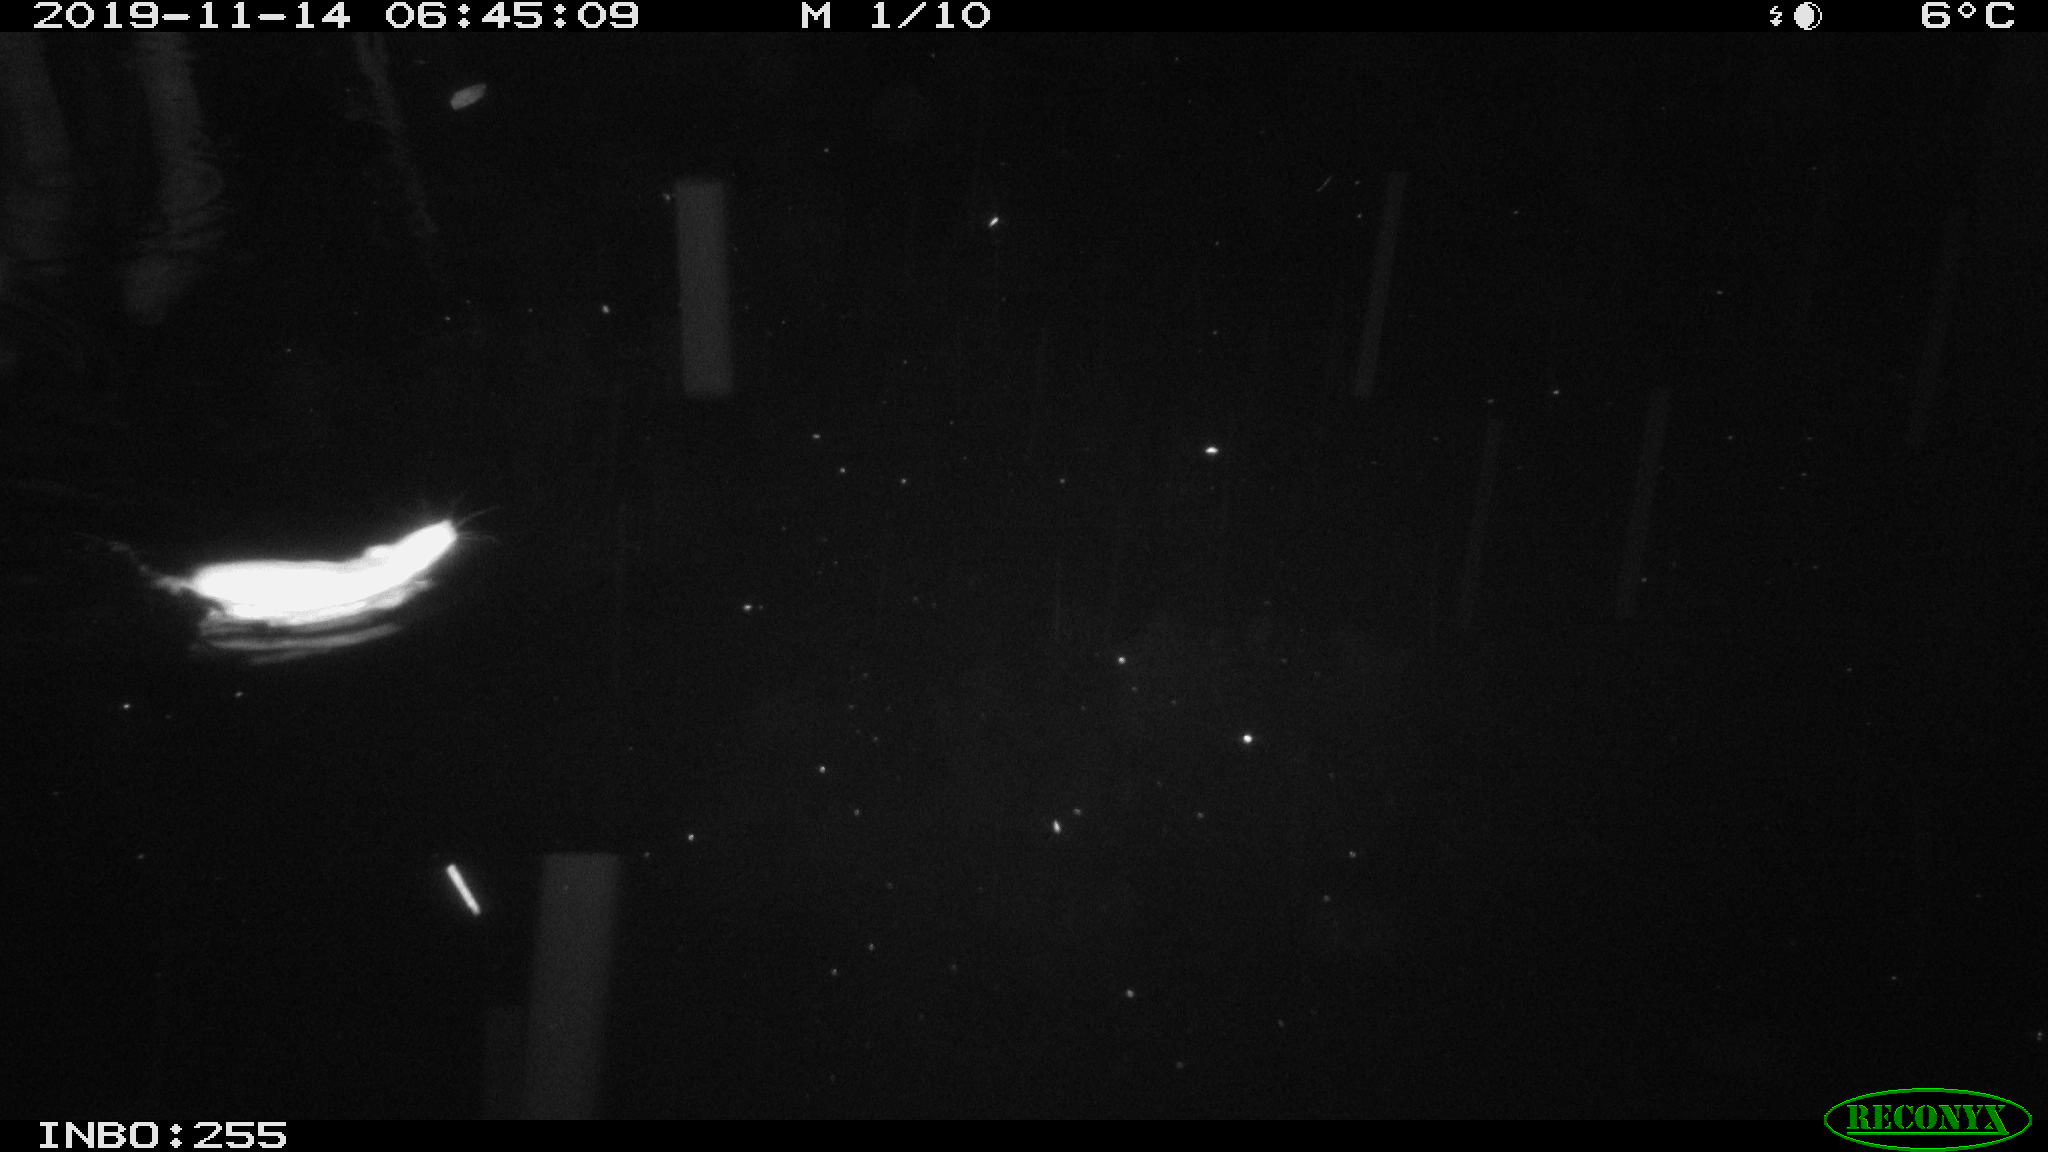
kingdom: Animalia
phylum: Chordata
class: Mammalia
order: Rodentia
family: Cricetidae
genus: Ondatra
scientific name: Ondatra zibethicus
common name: Muskrat
